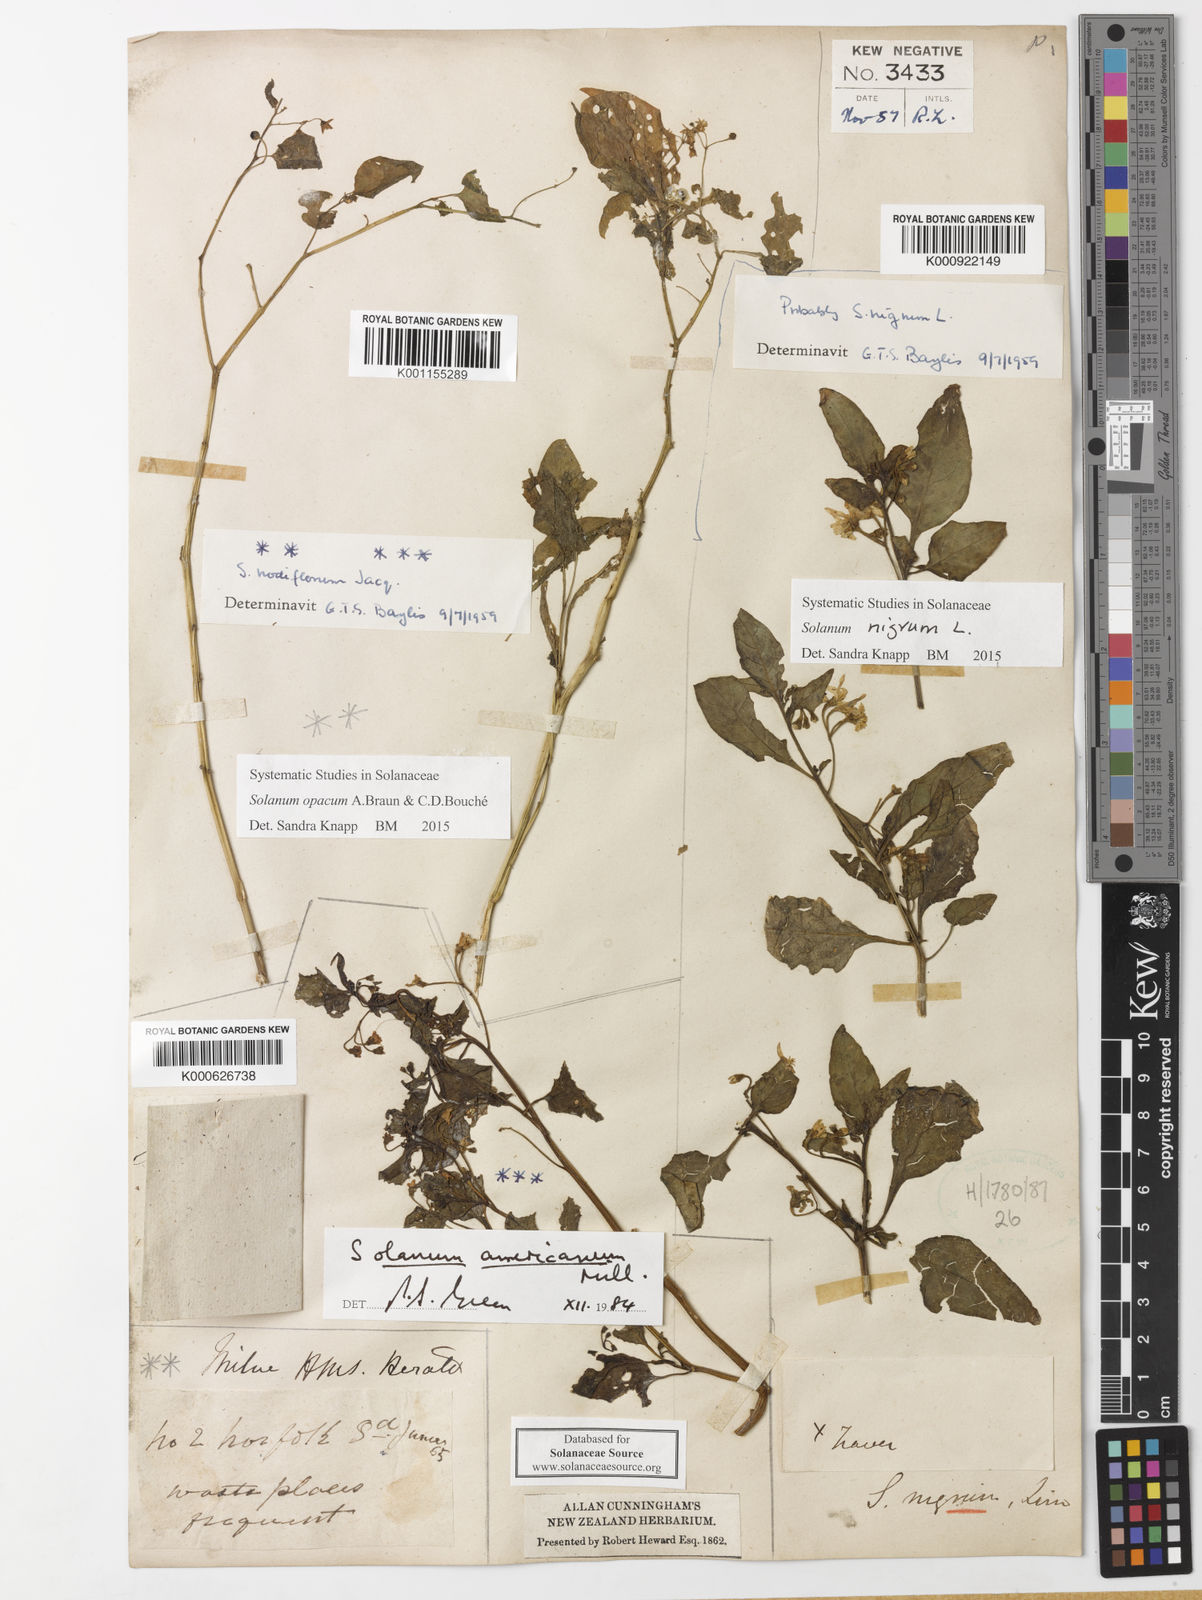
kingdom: Plantae
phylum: Tracheophyta
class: Magnoliopsida
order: Solanales
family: Solanaceae
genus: Solanum
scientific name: Solanum
